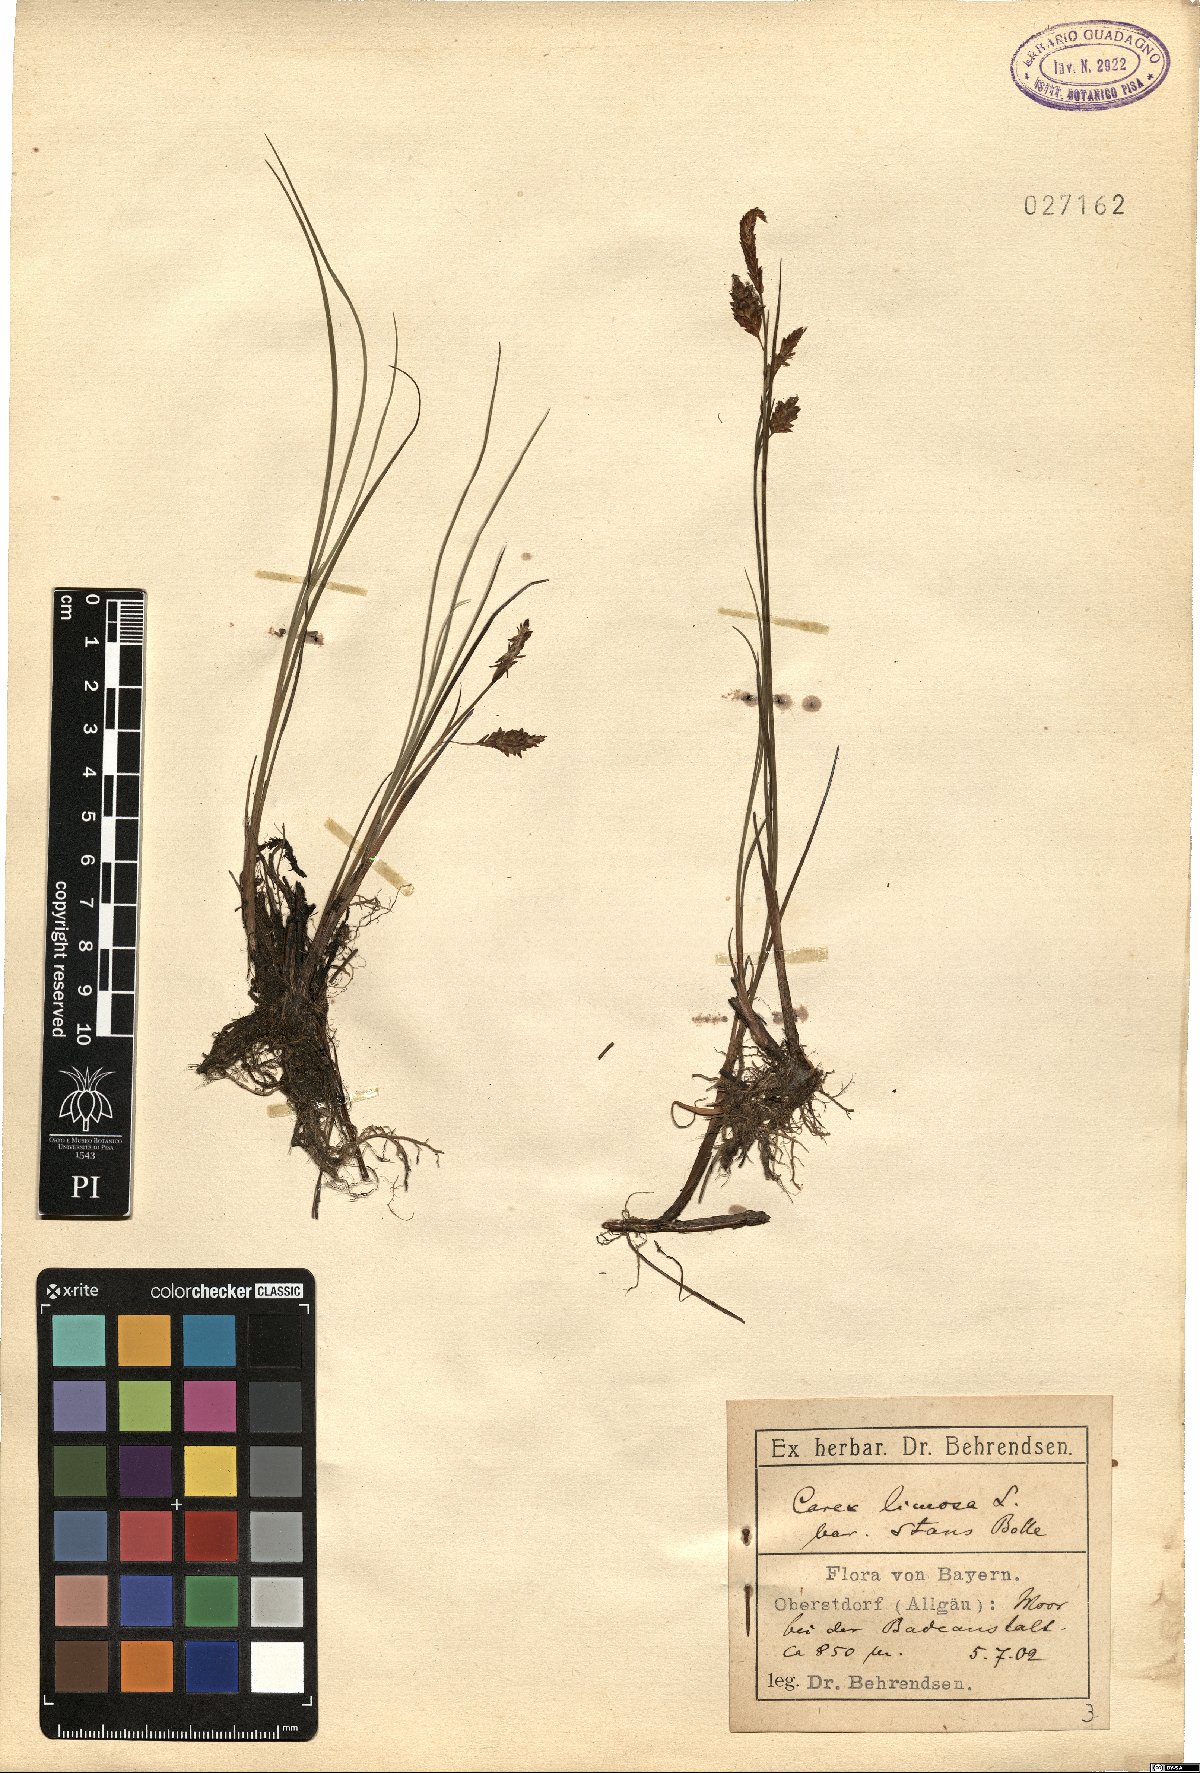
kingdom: Plantae
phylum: Tracheophyta
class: Liliopsida
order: Poales
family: Cyperaceae
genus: Carex
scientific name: Carex limosa
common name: Bog sedge
